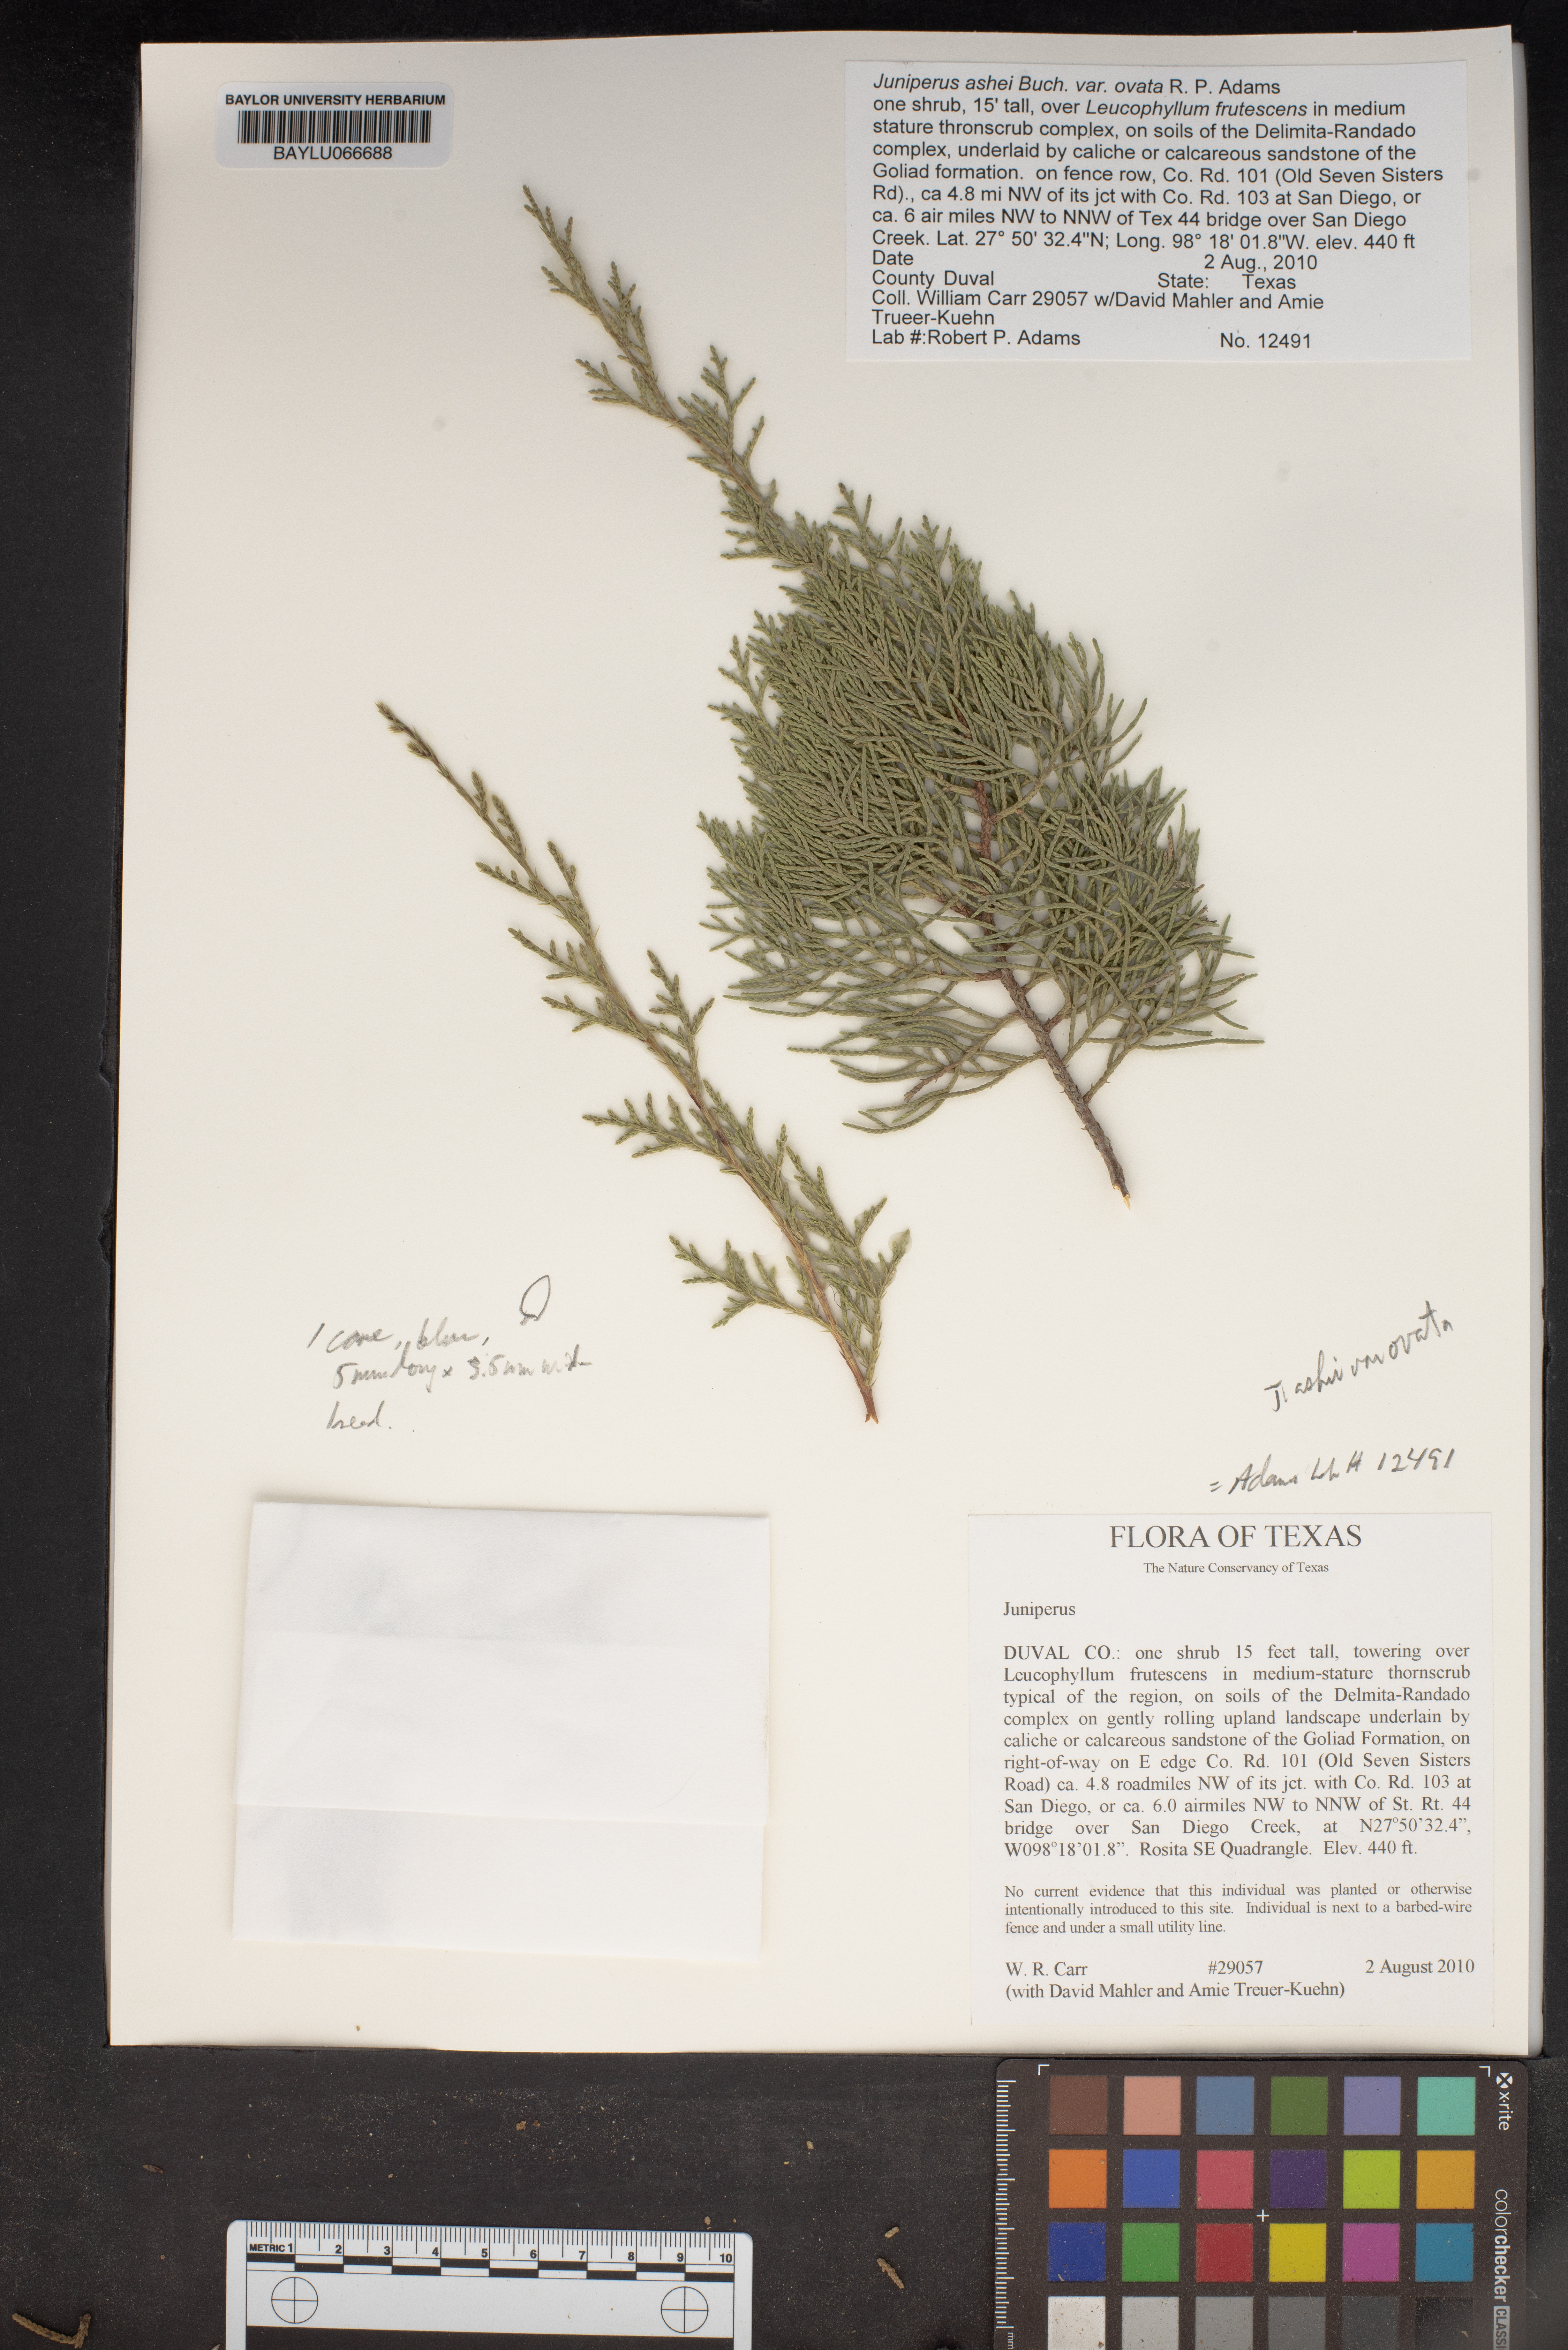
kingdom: Plantae
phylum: Tracheophyta
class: Pinopsida
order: Pinales
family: Cupressaceae
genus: Juniperus
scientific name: Juniperus
